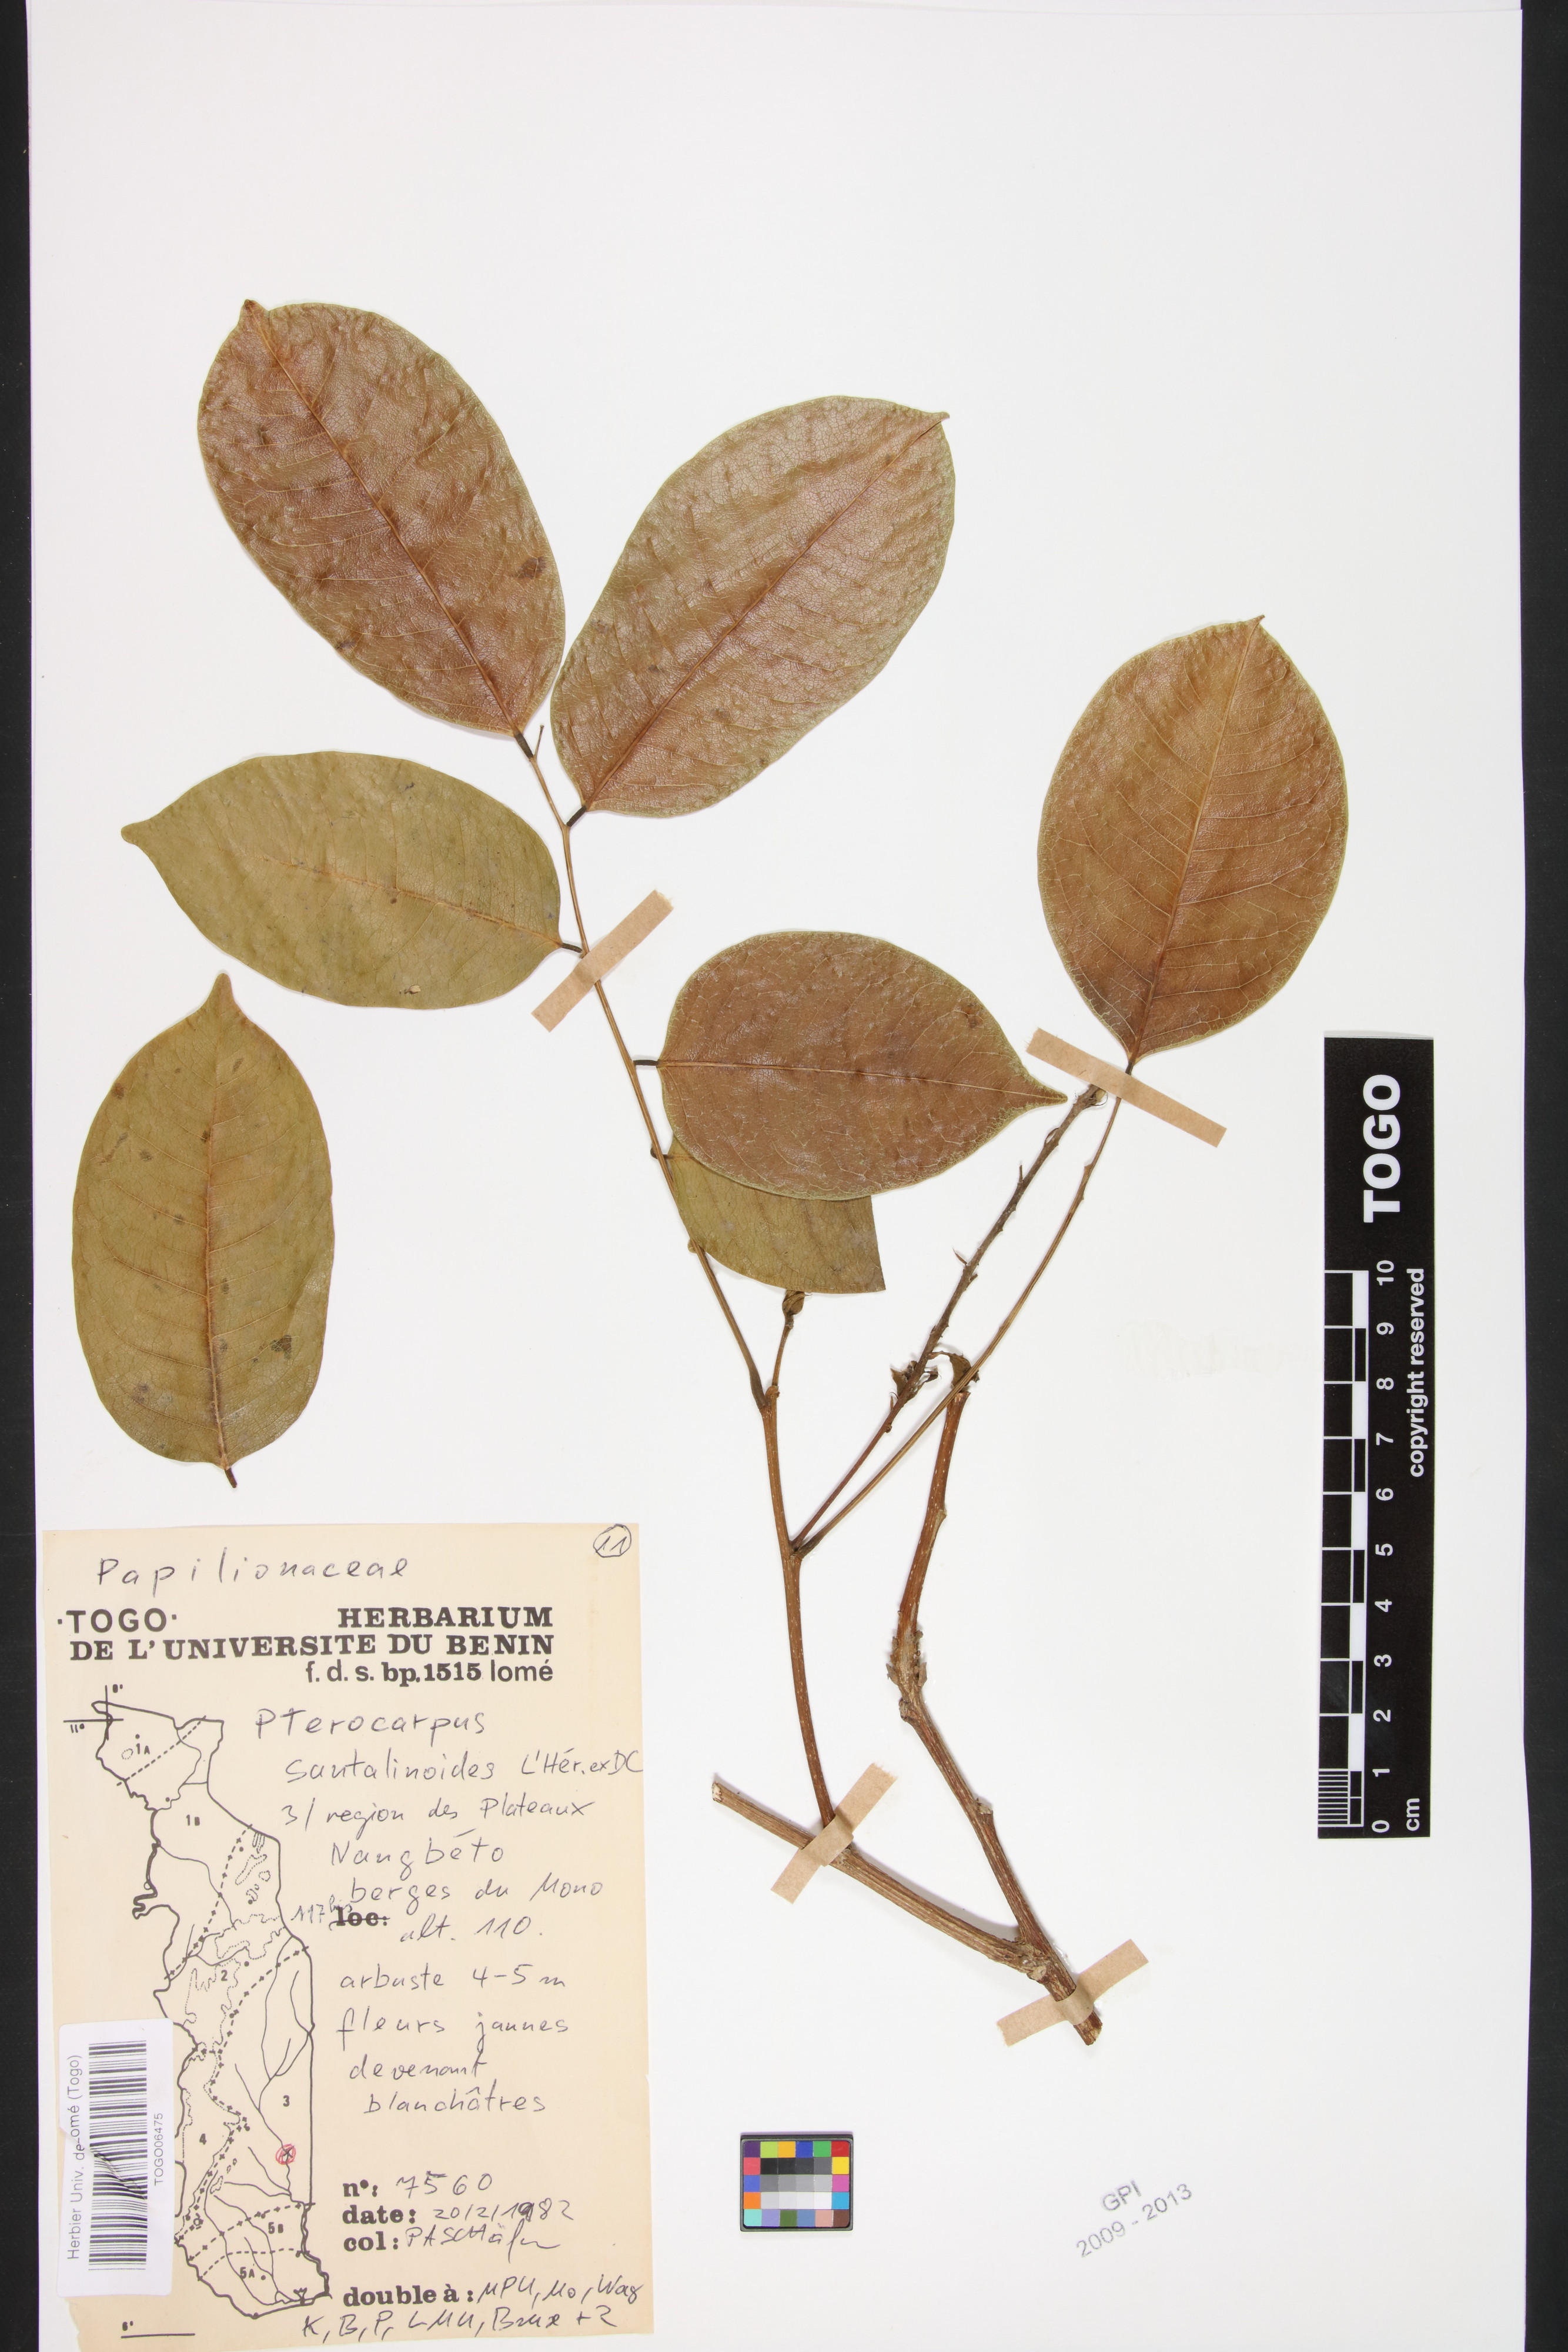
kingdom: Plantae
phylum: Tracheophyta
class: Magnoliopsida
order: Fabales
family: Fabaceae
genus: Pterocarpus
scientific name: Pterocarpus santalinoides
